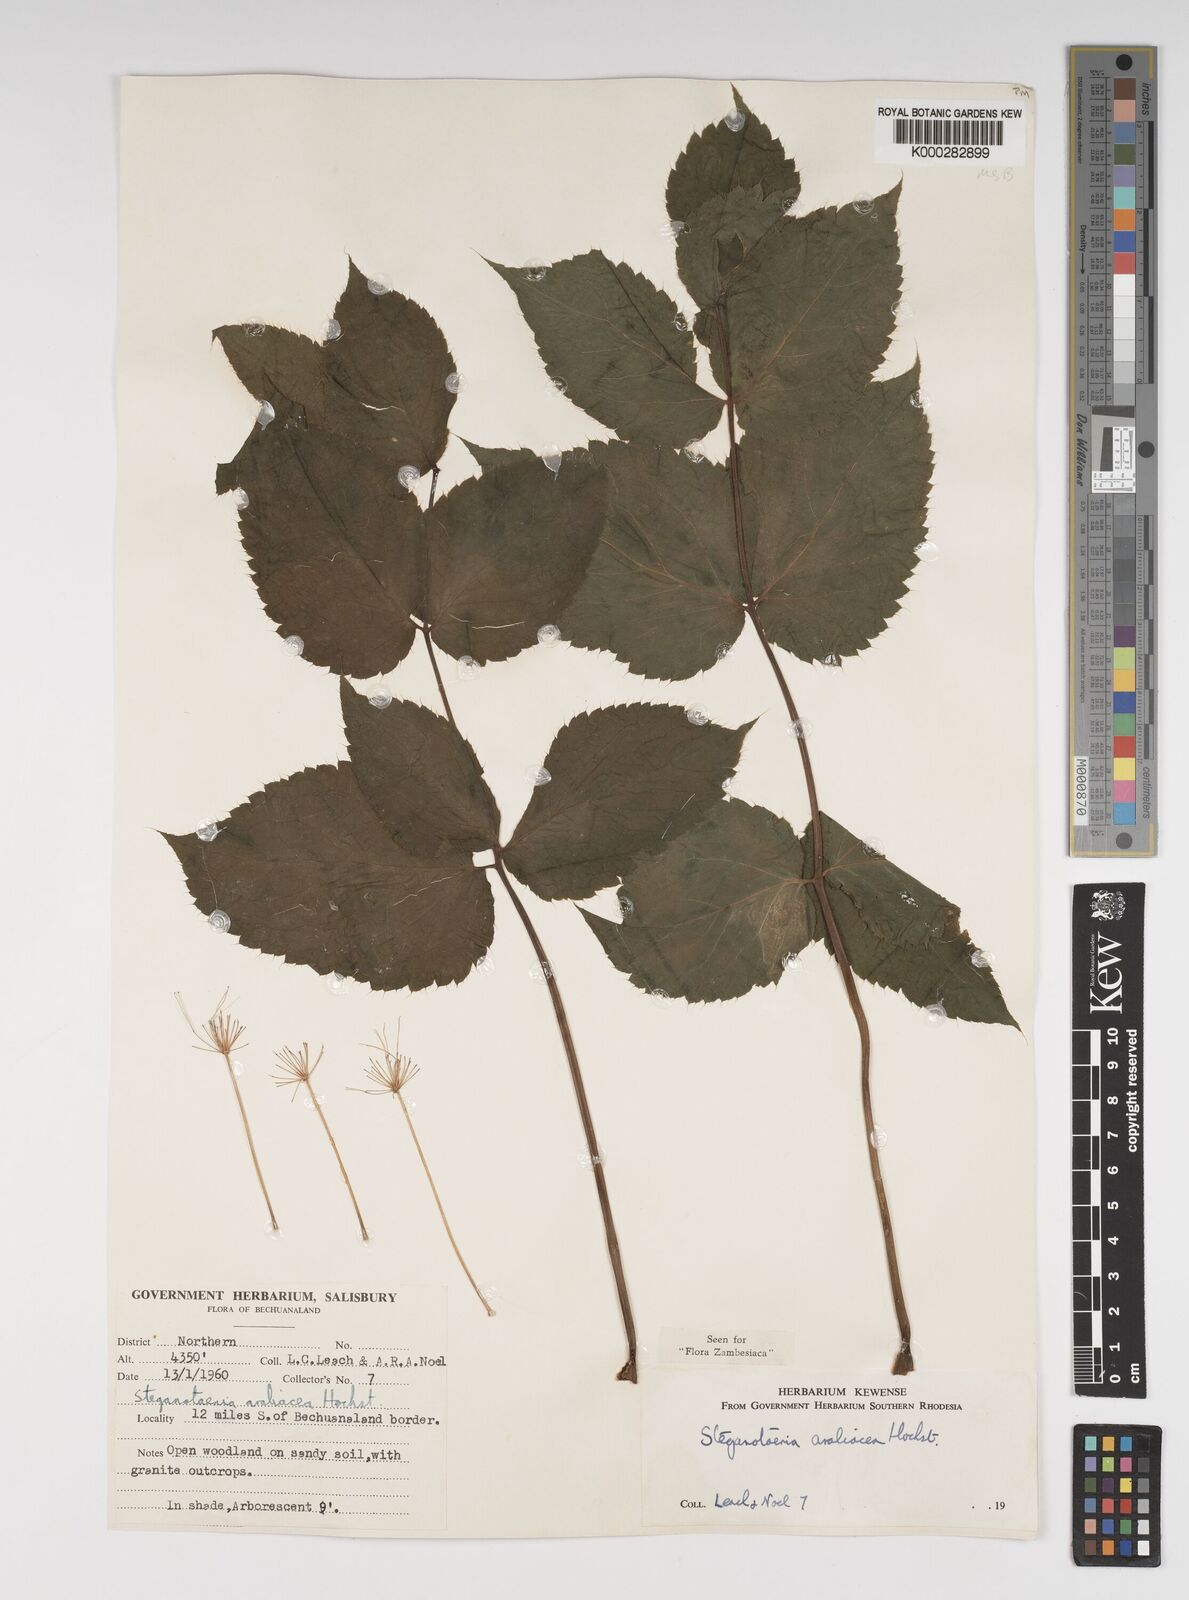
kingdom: Plantae
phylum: Tracheophyta
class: Magnoliopsida
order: Apiales
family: Apiaceae
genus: Steganotaenia
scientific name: Steganotaenia araliacea
